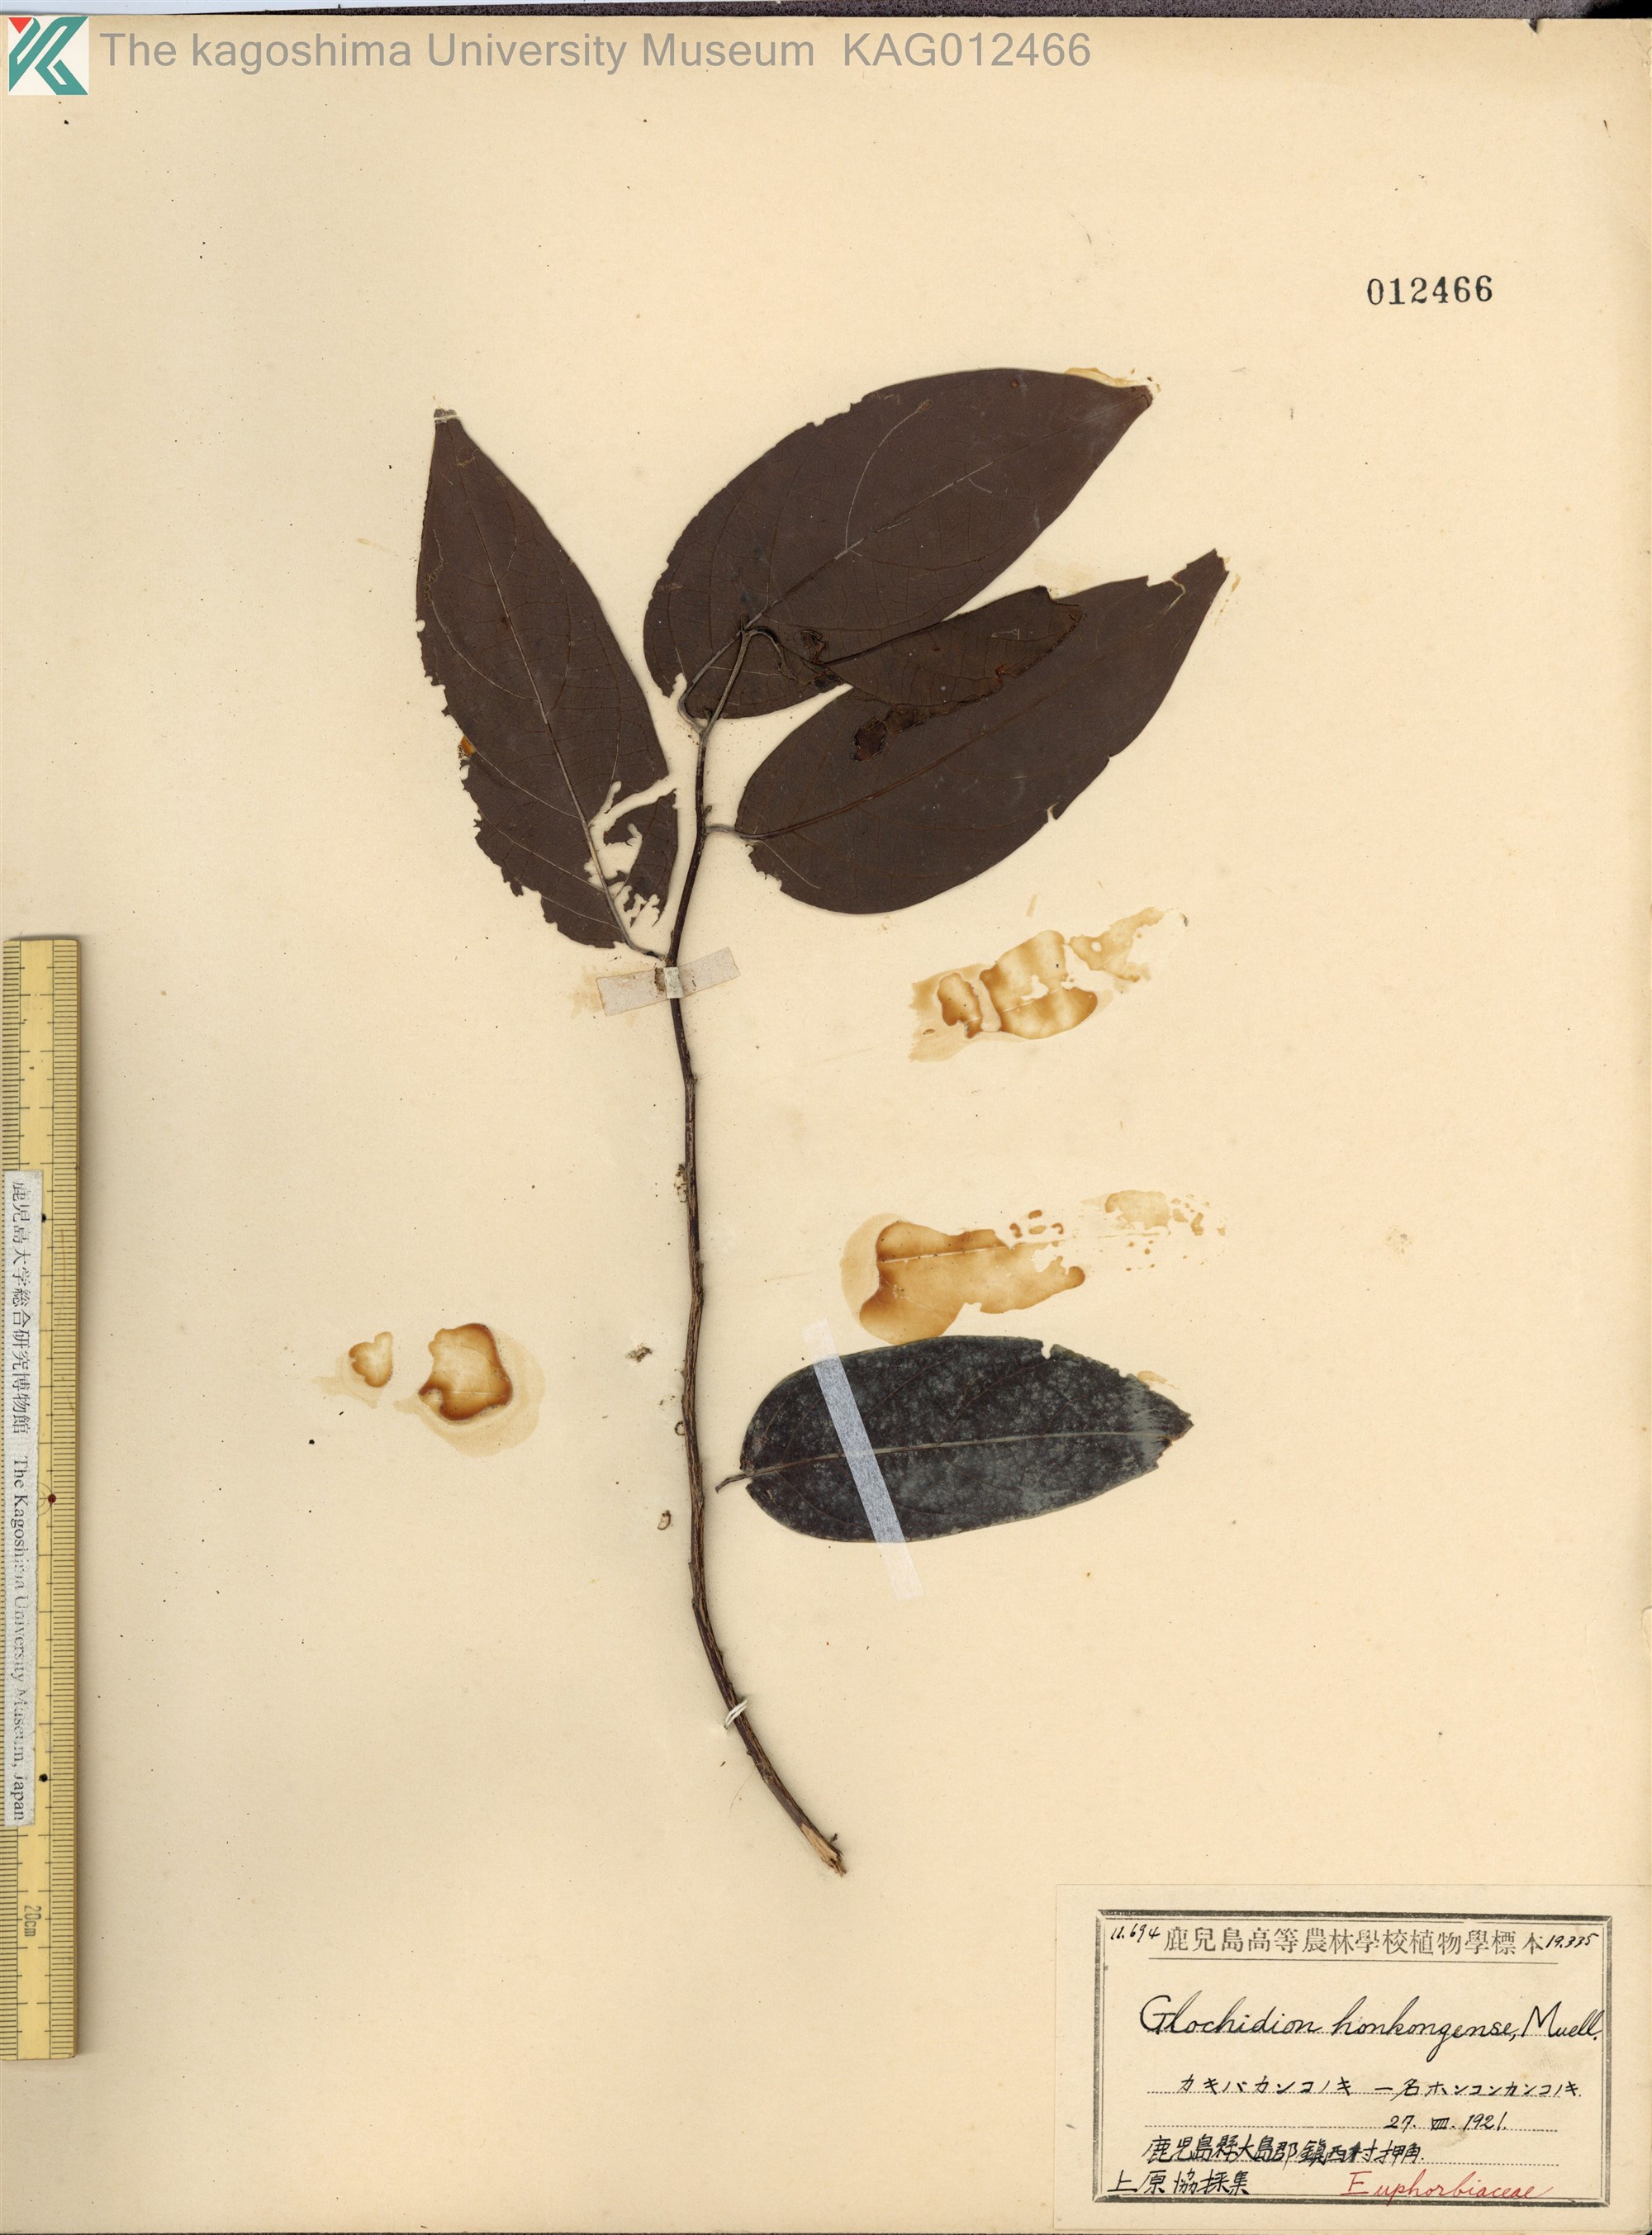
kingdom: Plantae
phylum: Tracheophyta
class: Magnoliopsida
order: Malpighiales
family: Phyllanthaceae
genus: Glochidion
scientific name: Glochidion zeylanicum
